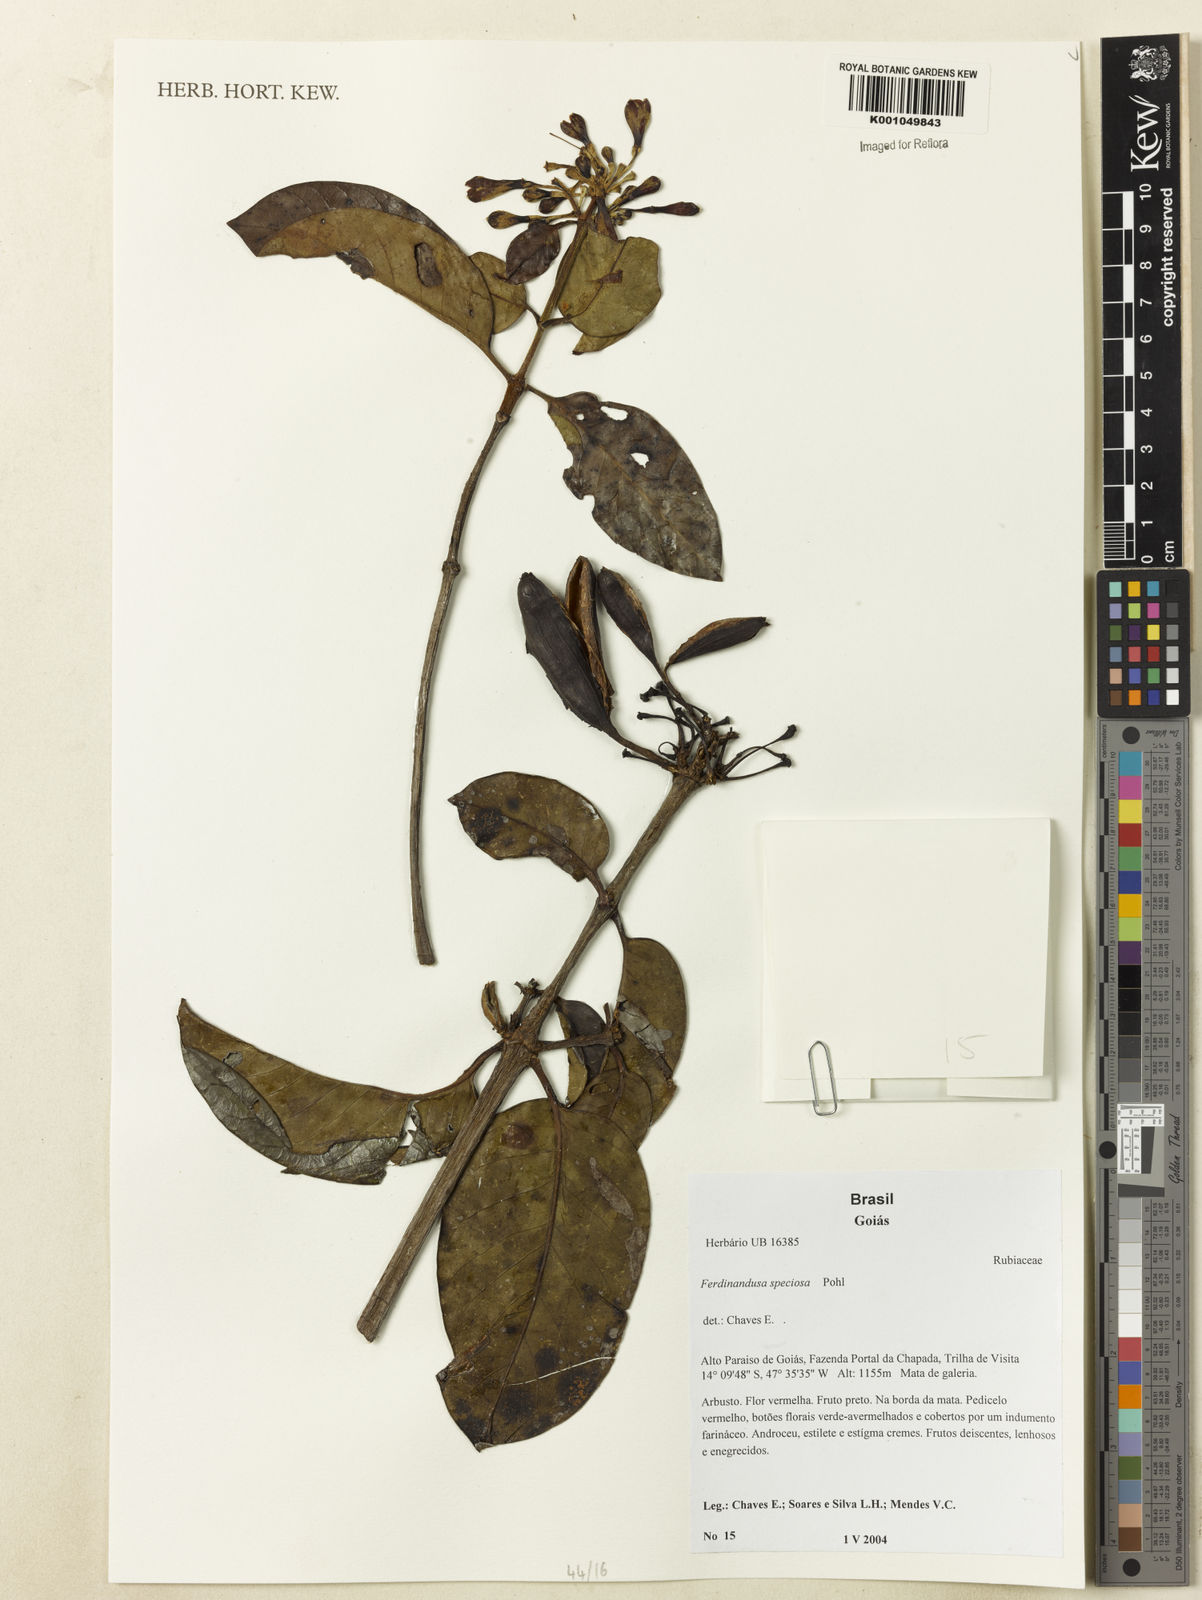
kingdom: Plantae
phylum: Tracheophyta
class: Magnoliopsida
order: Gentianales
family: Rubiaceae
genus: Ferdinandusa
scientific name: Ferdinandusa speciosa
